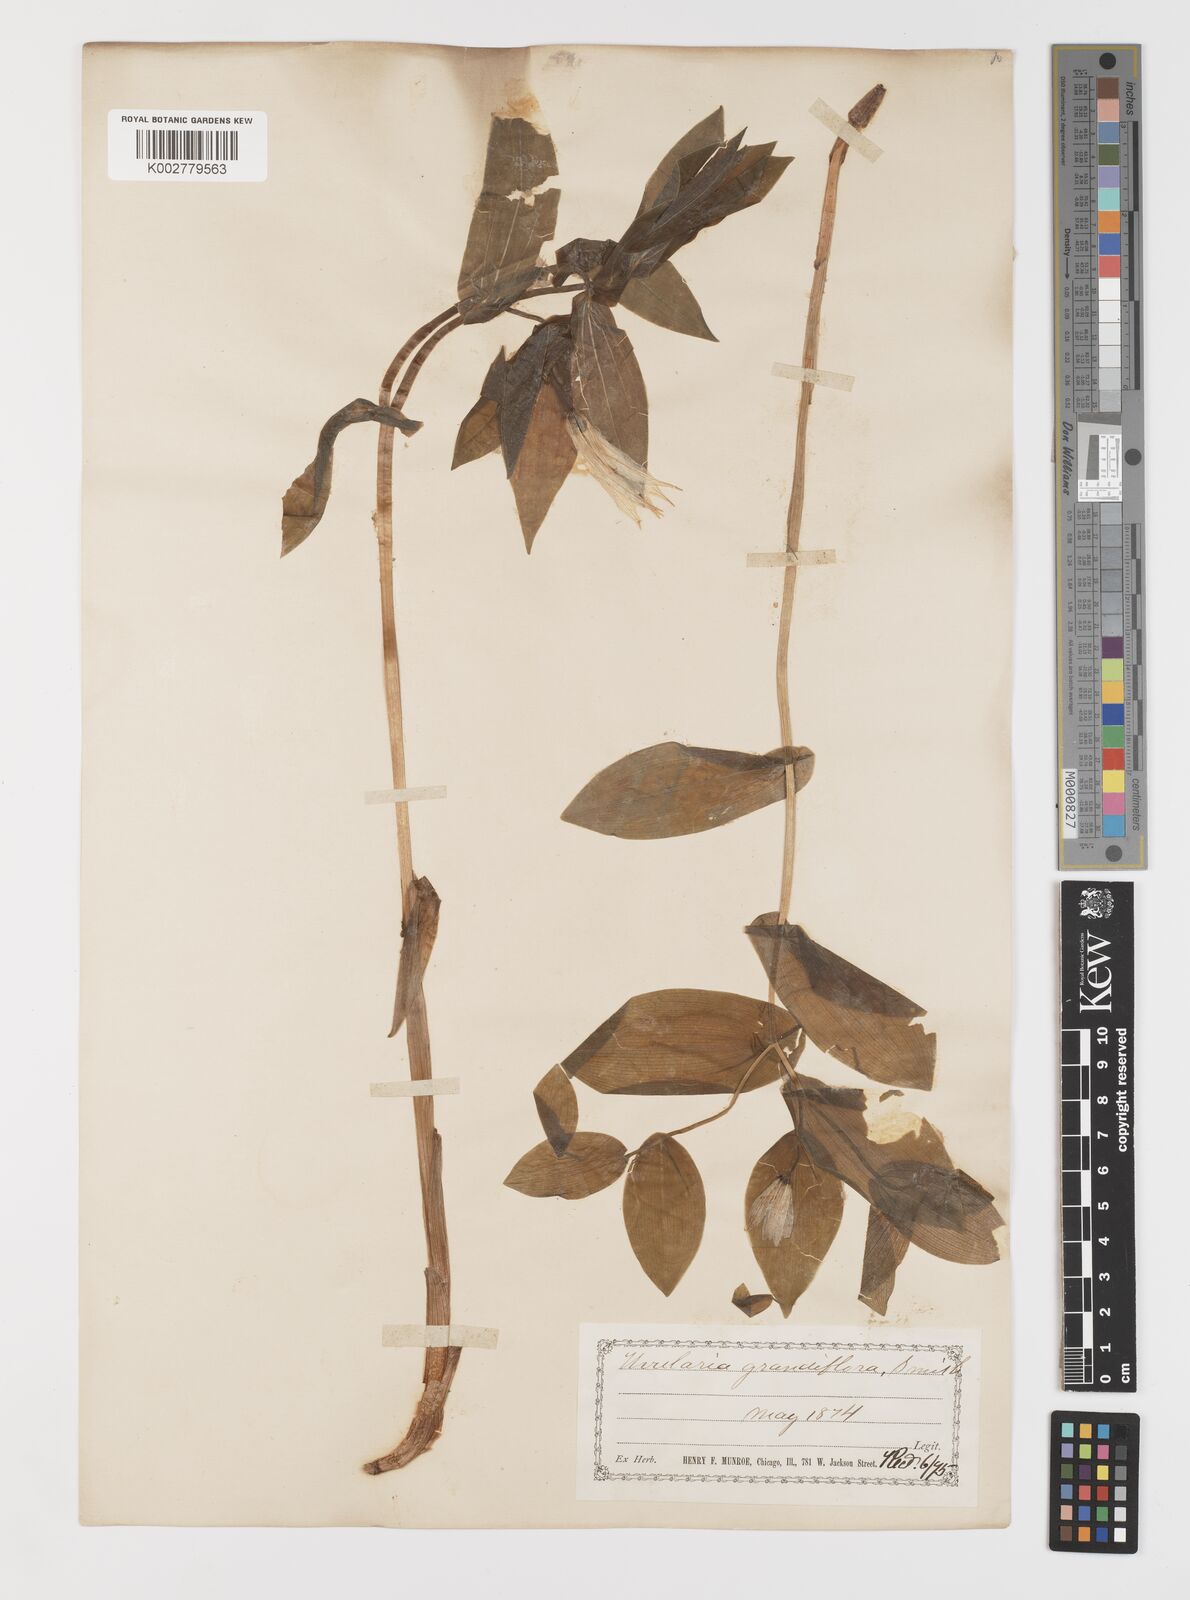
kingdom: Plantae
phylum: Tracheophyta
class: Liliopsida
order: Liliales
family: Colchicaceae
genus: Uvularia
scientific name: Uvularia grandiflora
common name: Bellwort
